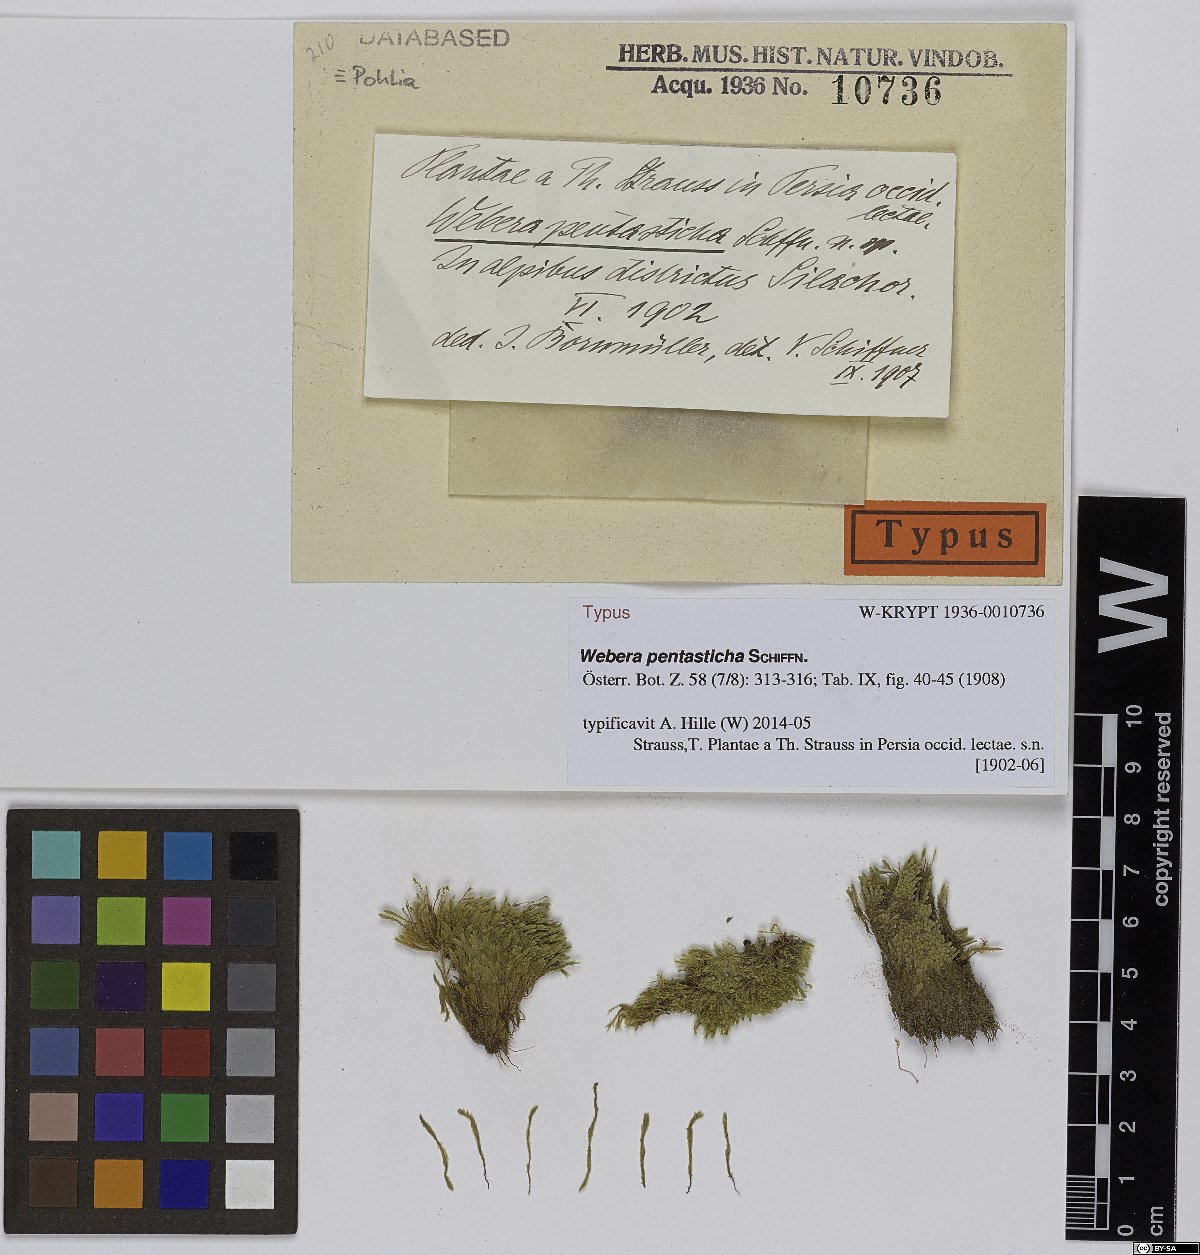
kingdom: Plantae
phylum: Bryophyta
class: Bryopsida
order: Bryales
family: Mniaceae
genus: Pohlia
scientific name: Pohlia pentasticha
